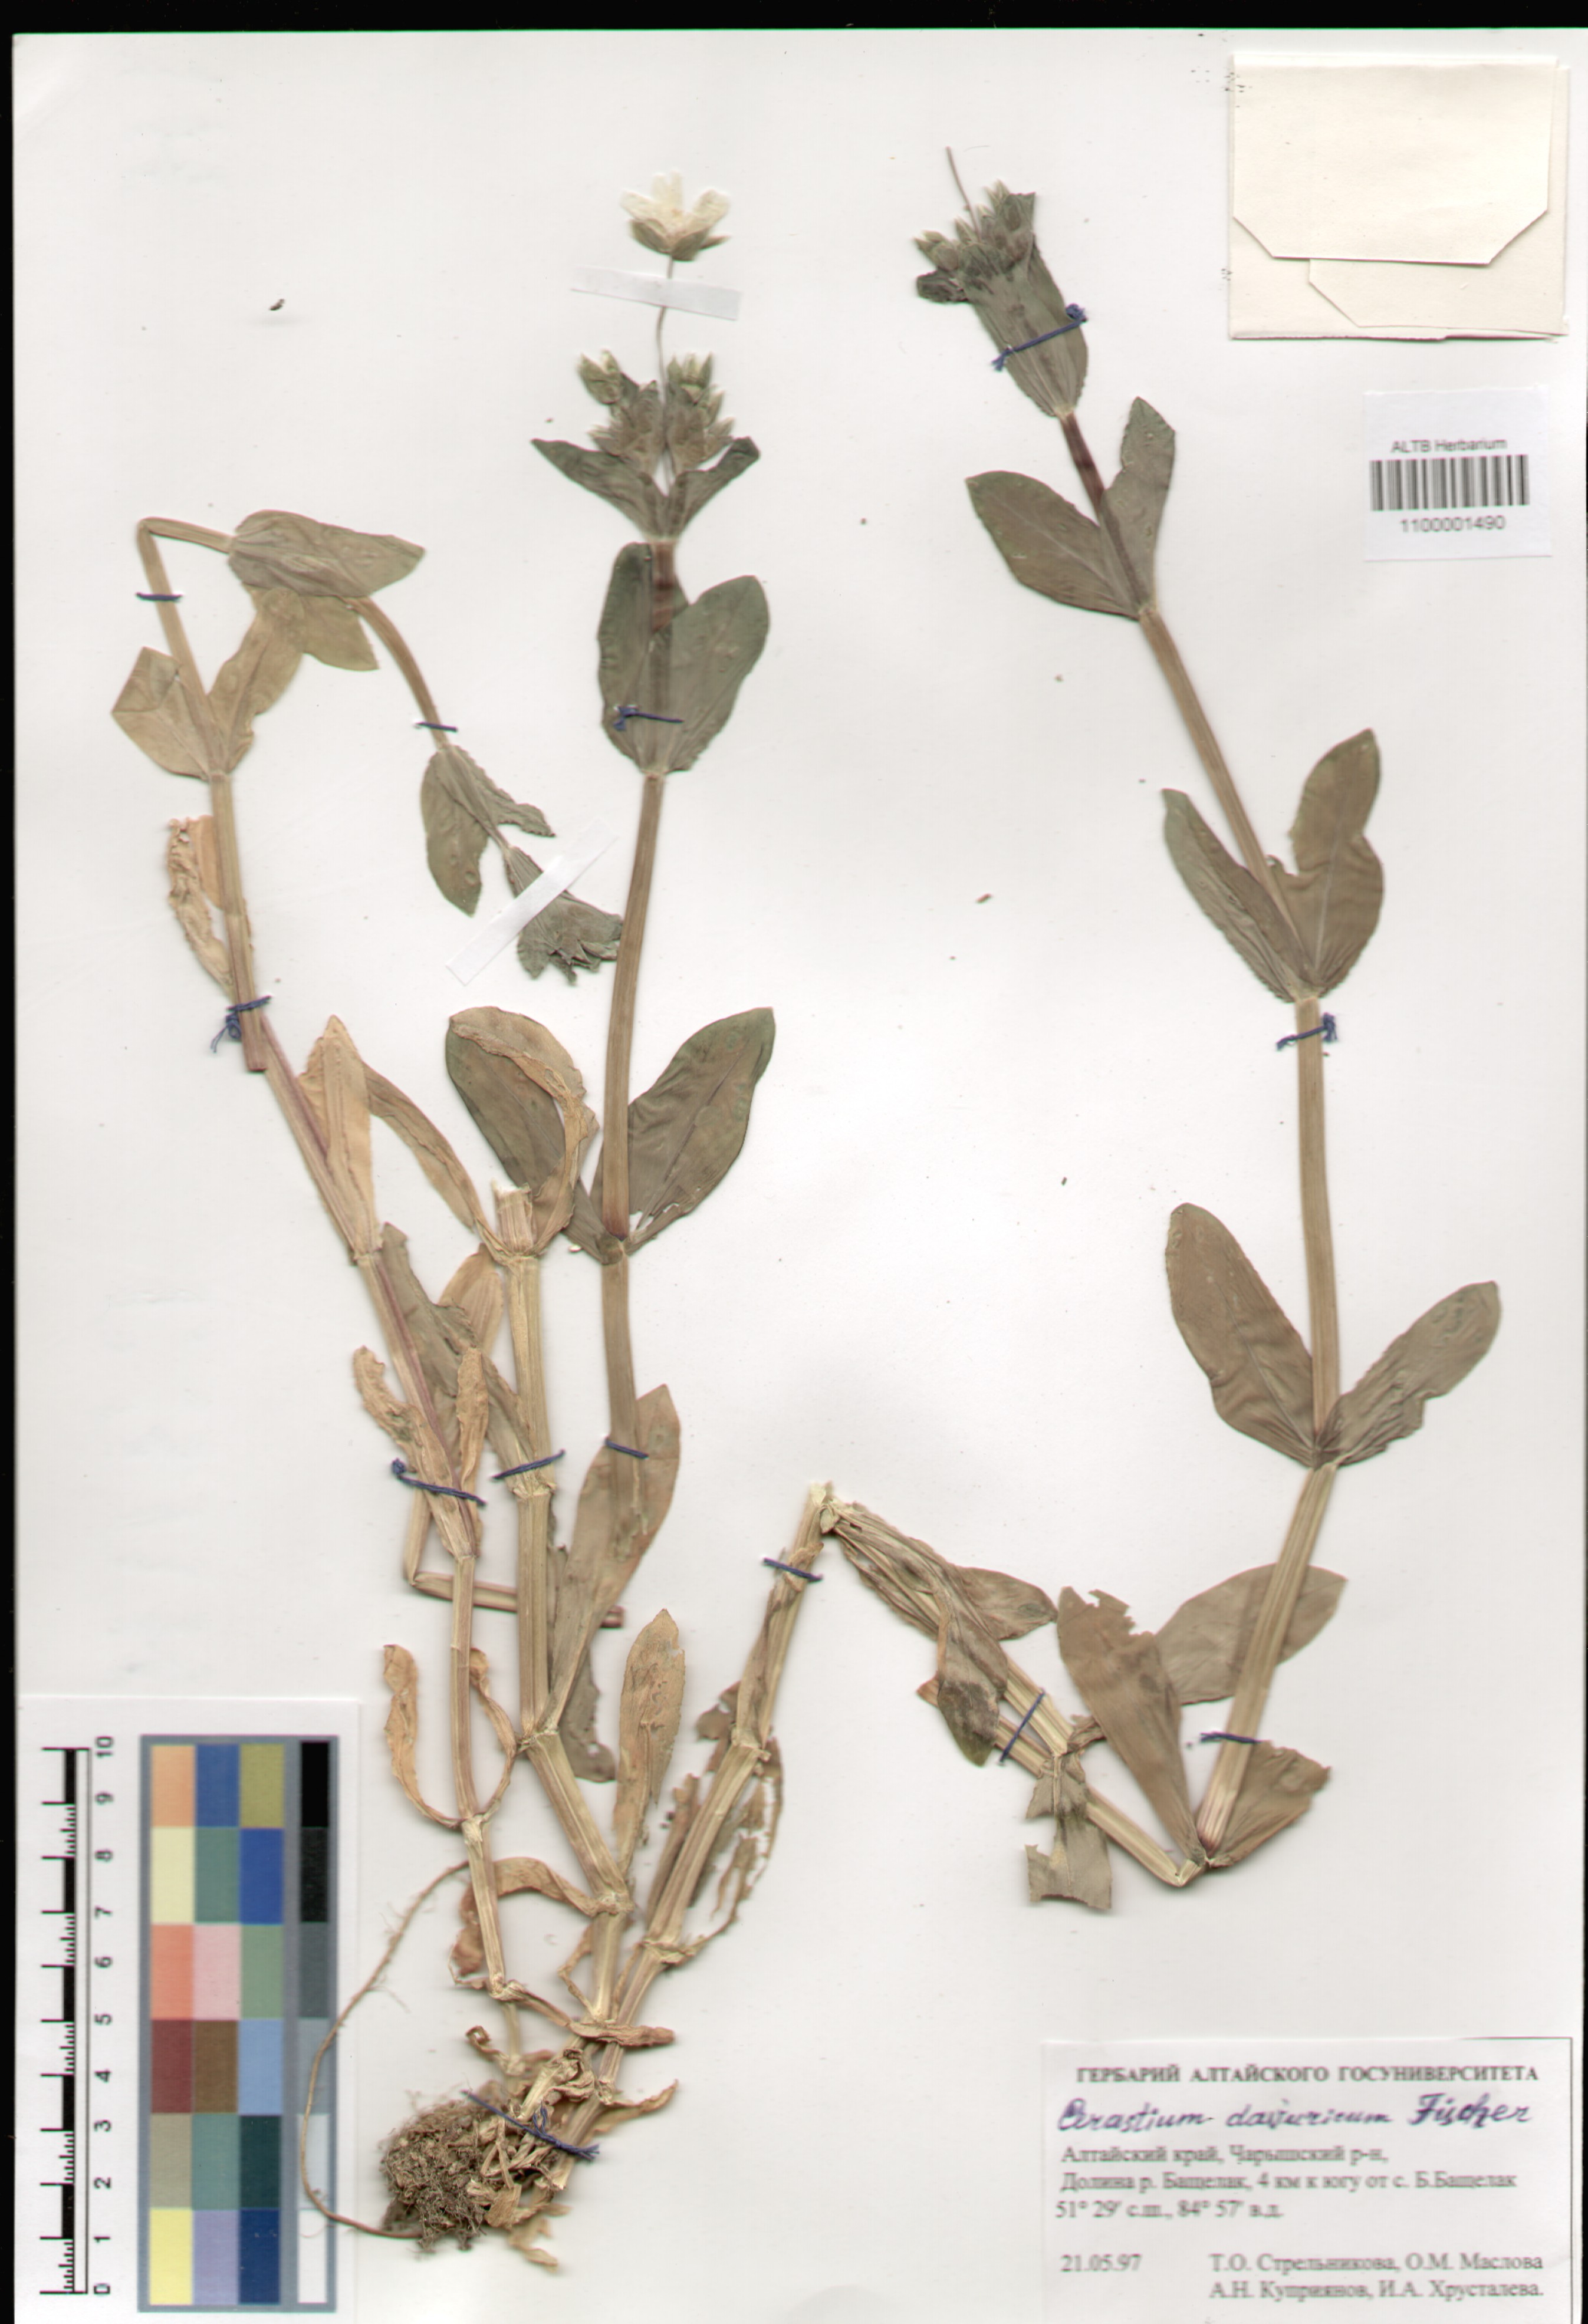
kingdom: Plantae
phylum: Tracheophyta
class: Magnoliopsida
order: Caryophyllales
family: Caryophyllaceae
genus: Dichodon
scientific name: Dichodon davuricum
